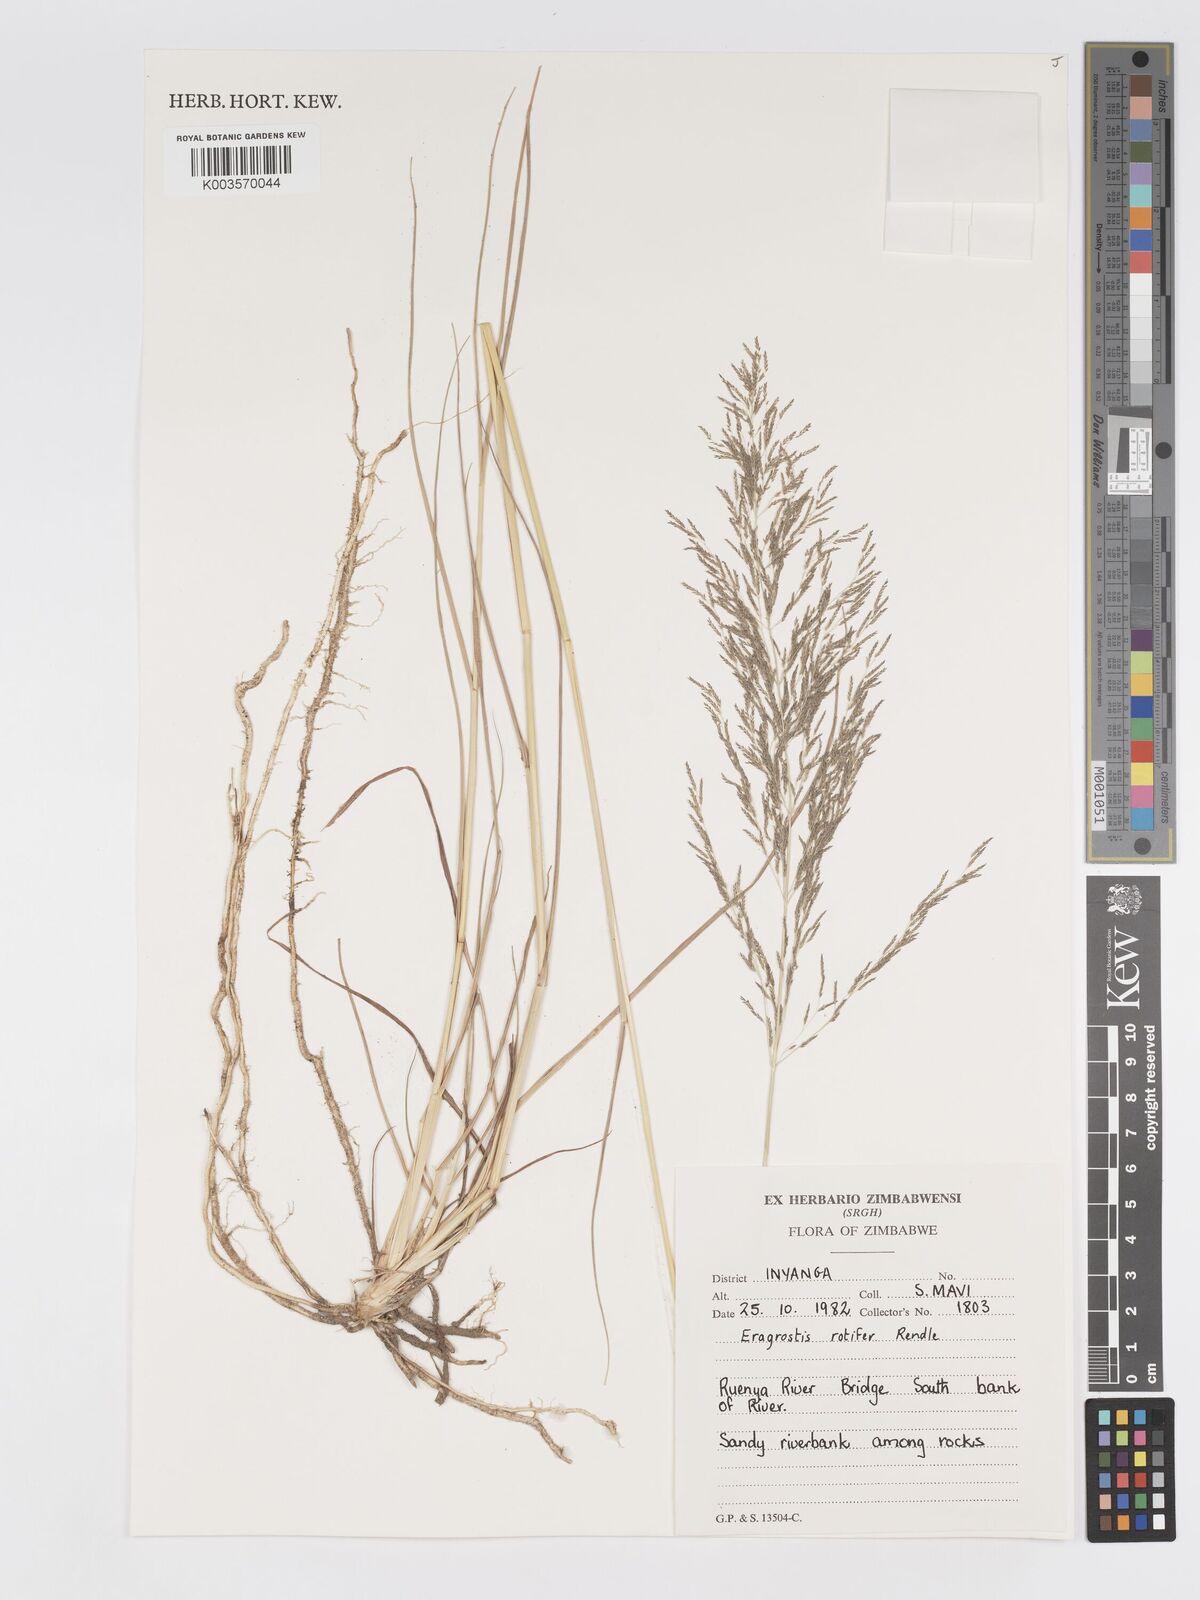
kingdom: Plantae
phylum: Tracheophyta
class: Liliopsida
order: Poales
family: Poaceae
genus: Eragrostis
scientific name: Eragrostis rotifer
